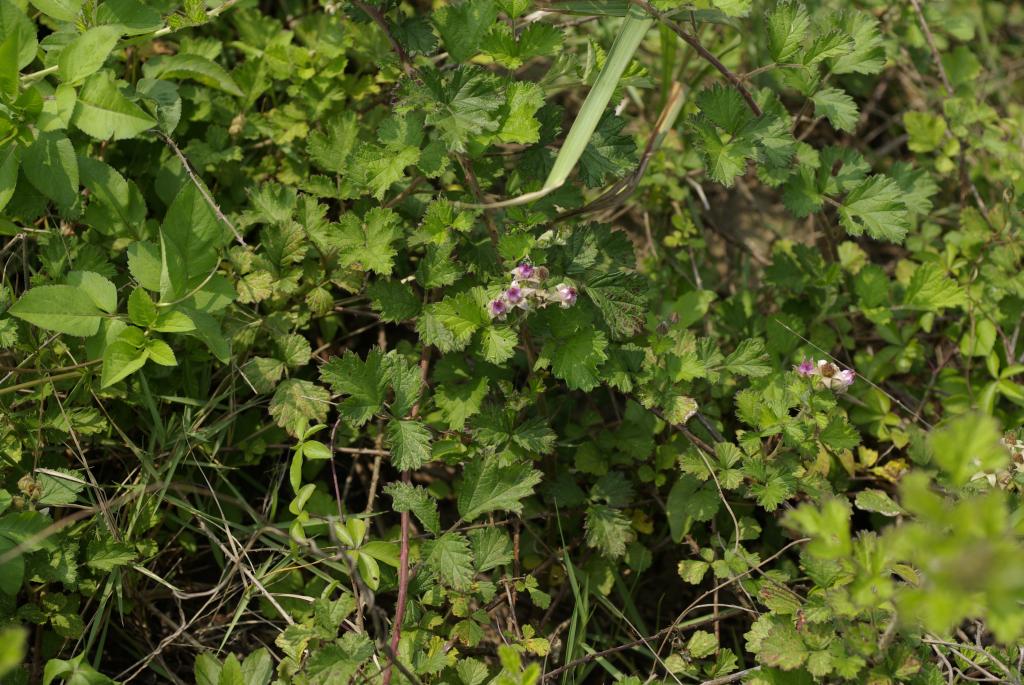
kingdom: Plantae
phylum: Tracheophyta
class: Magnoliopsida
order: Rosales
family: Rosaceae
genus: Rubus
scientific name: Rubus parvifolius
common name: Threeleaf blackberry
